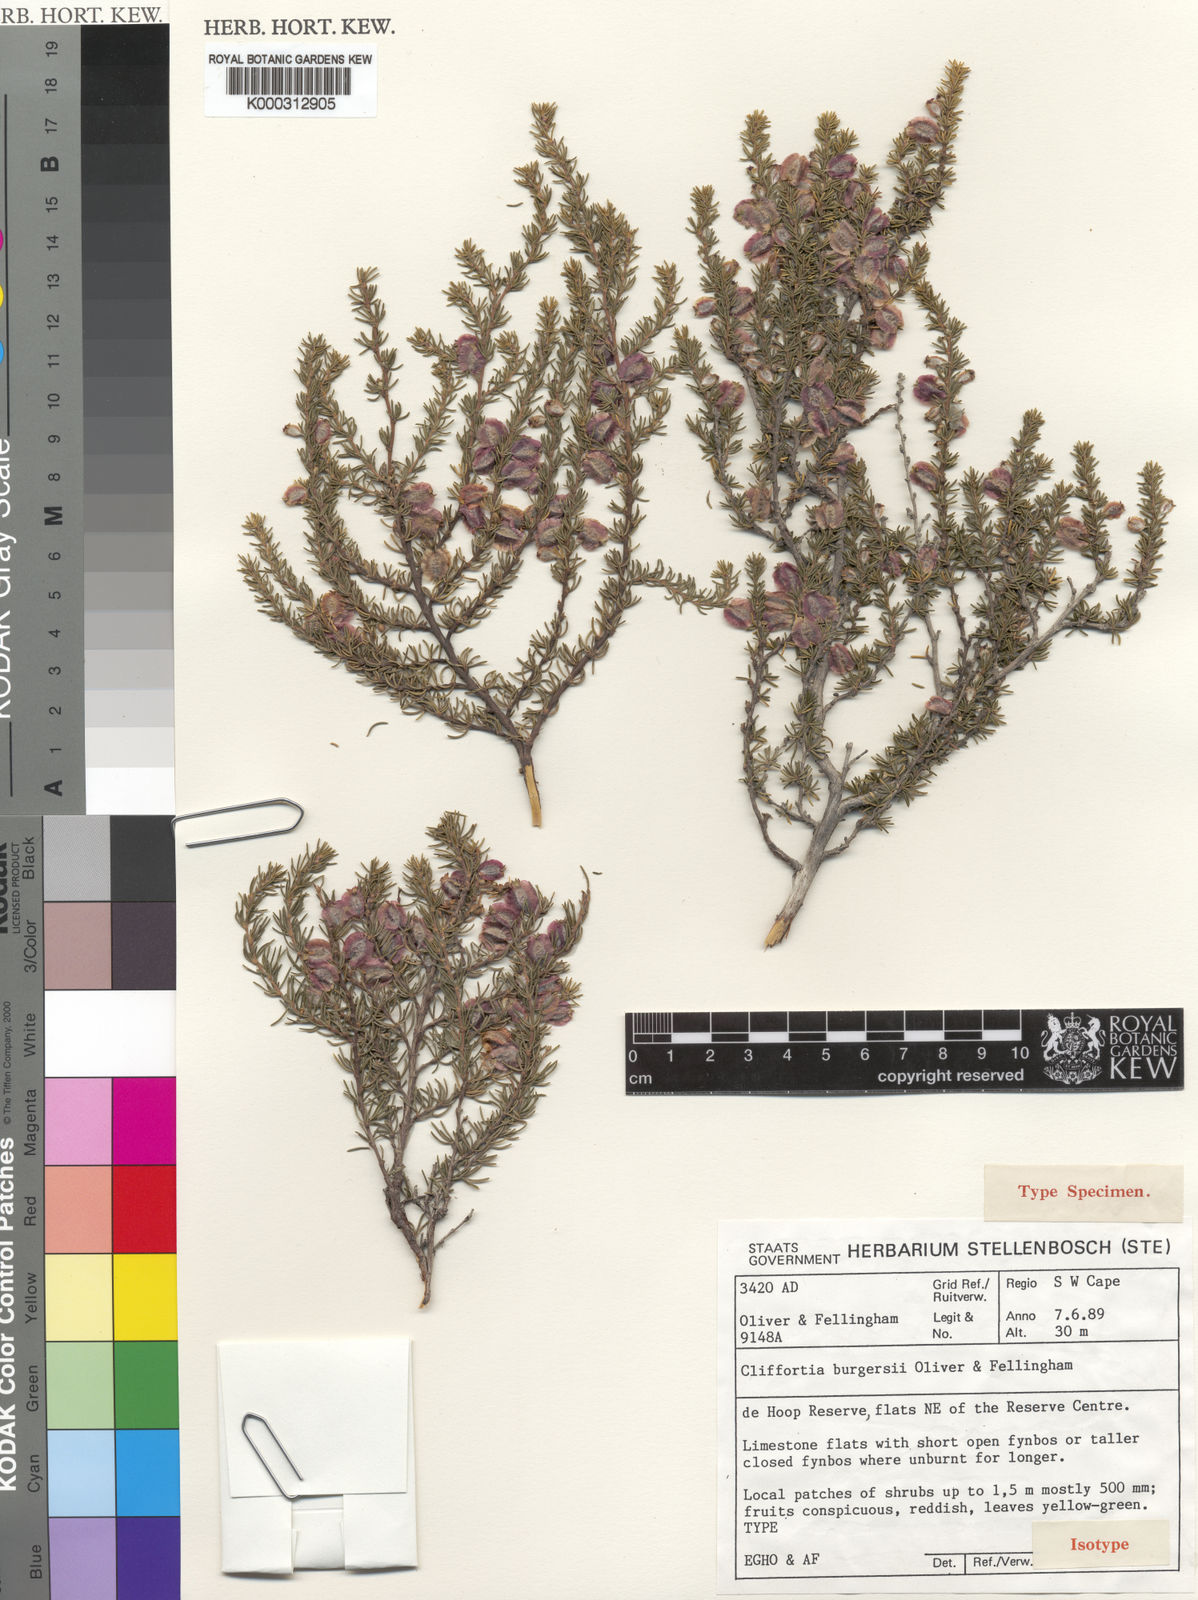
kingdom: Plantae
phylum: Tracheophyta
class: Magnoliopsida
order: Rosales
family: Rosaceae
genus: Cliffortia
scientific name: Cliffortia burgersii
